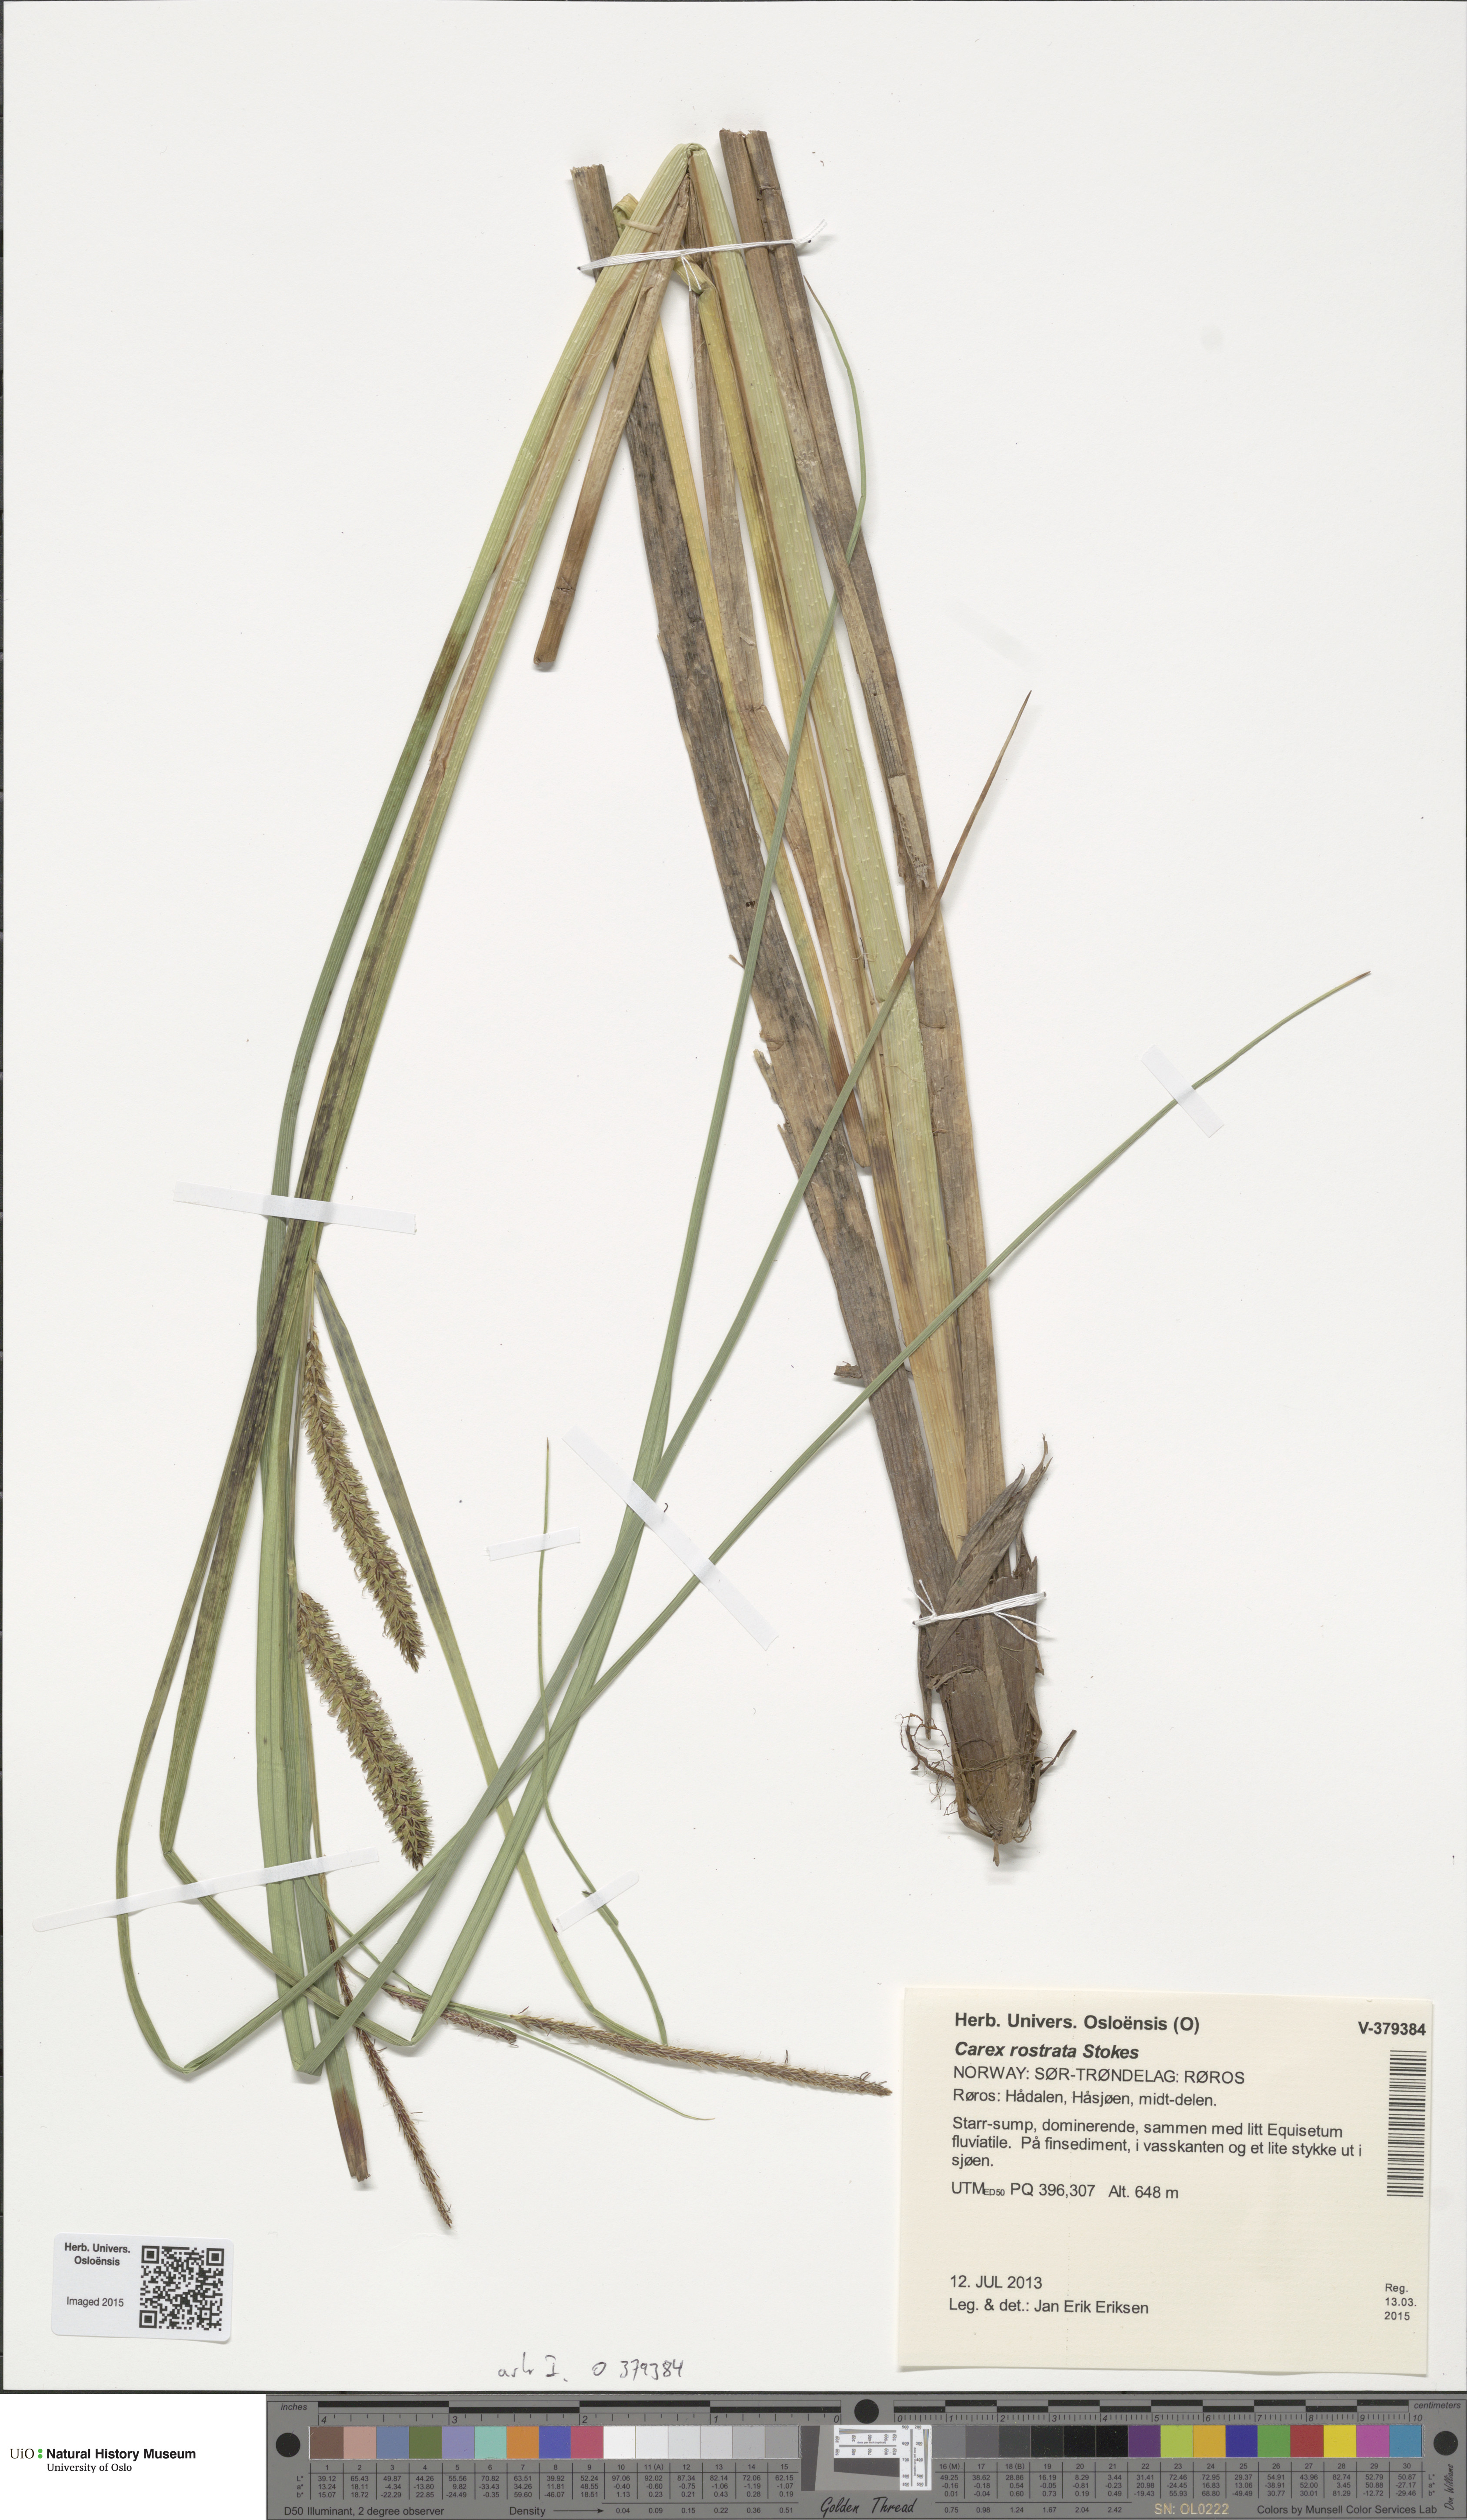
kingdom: Plantae
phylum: Tracheophyta
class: Liliopsida
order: Poales
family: Cyperaceae
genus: Carex
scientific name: Carex rostrata
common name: Bottle sedge
